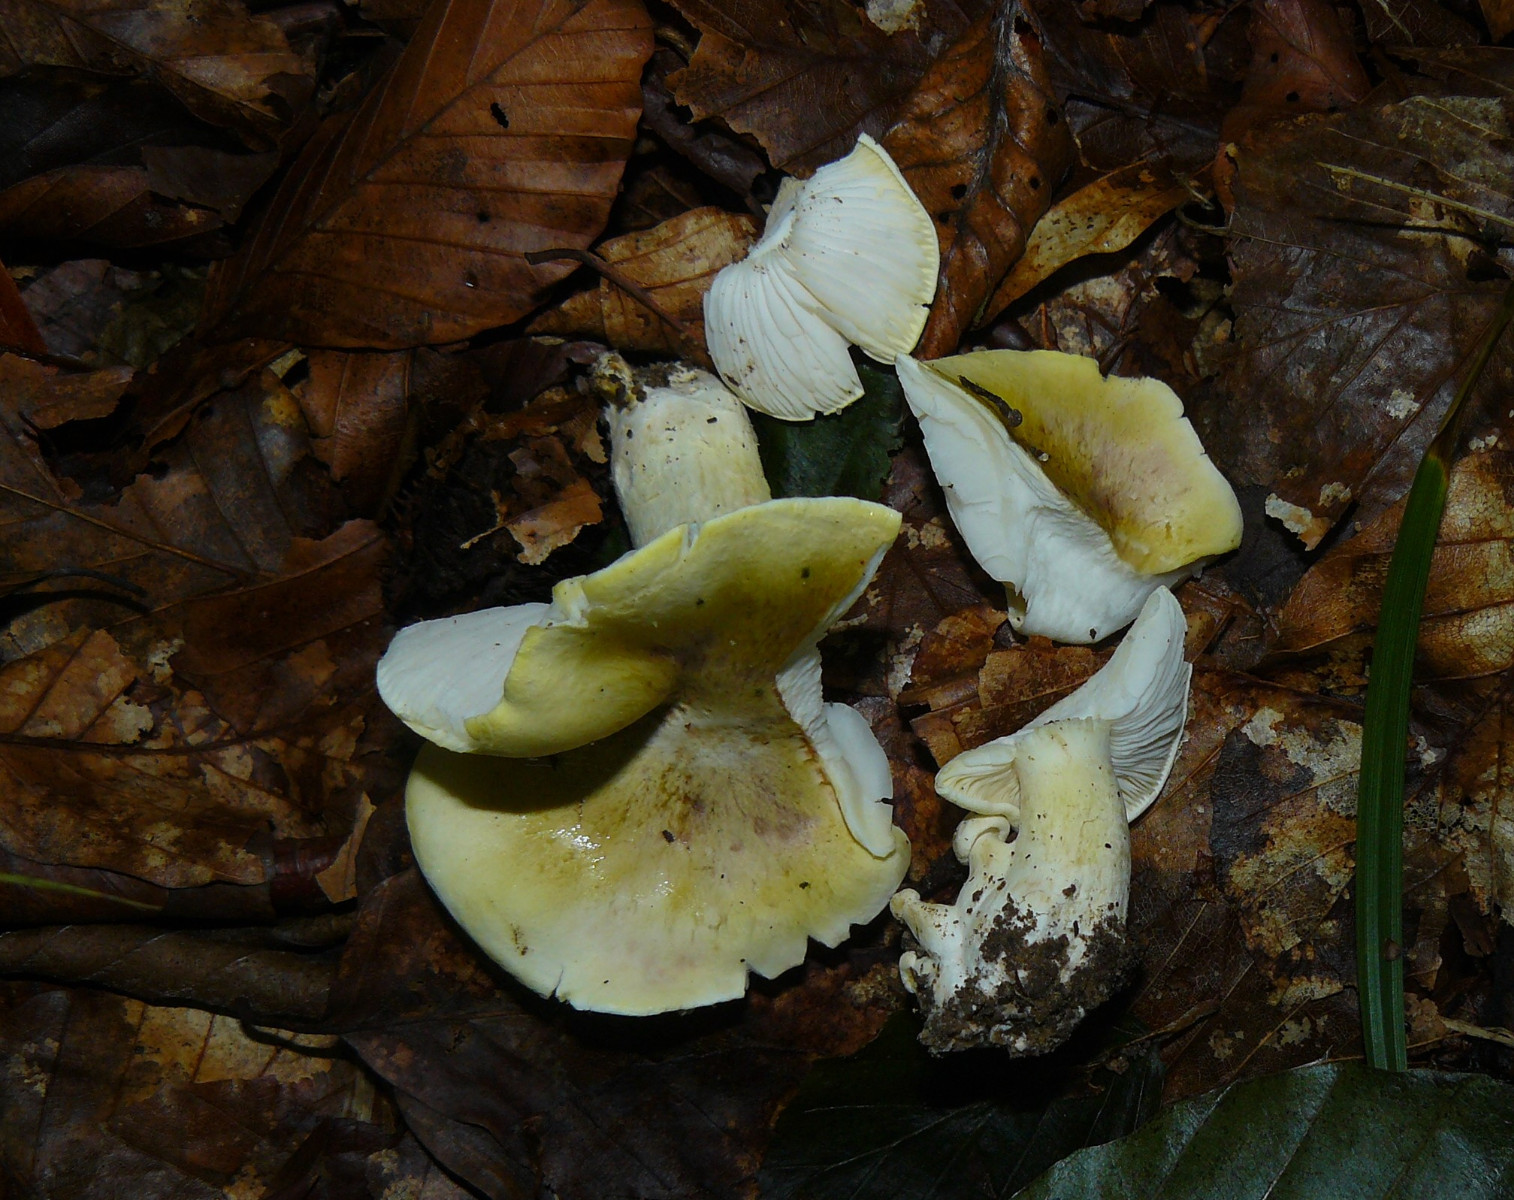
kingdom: Fungi
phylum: Basidiomycota
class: Agaricomycetes
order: Agaricales
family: Tricholomataceae
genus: Tricholoma
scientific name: Tricholoma sejunctum
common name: grøngul ridderhat
